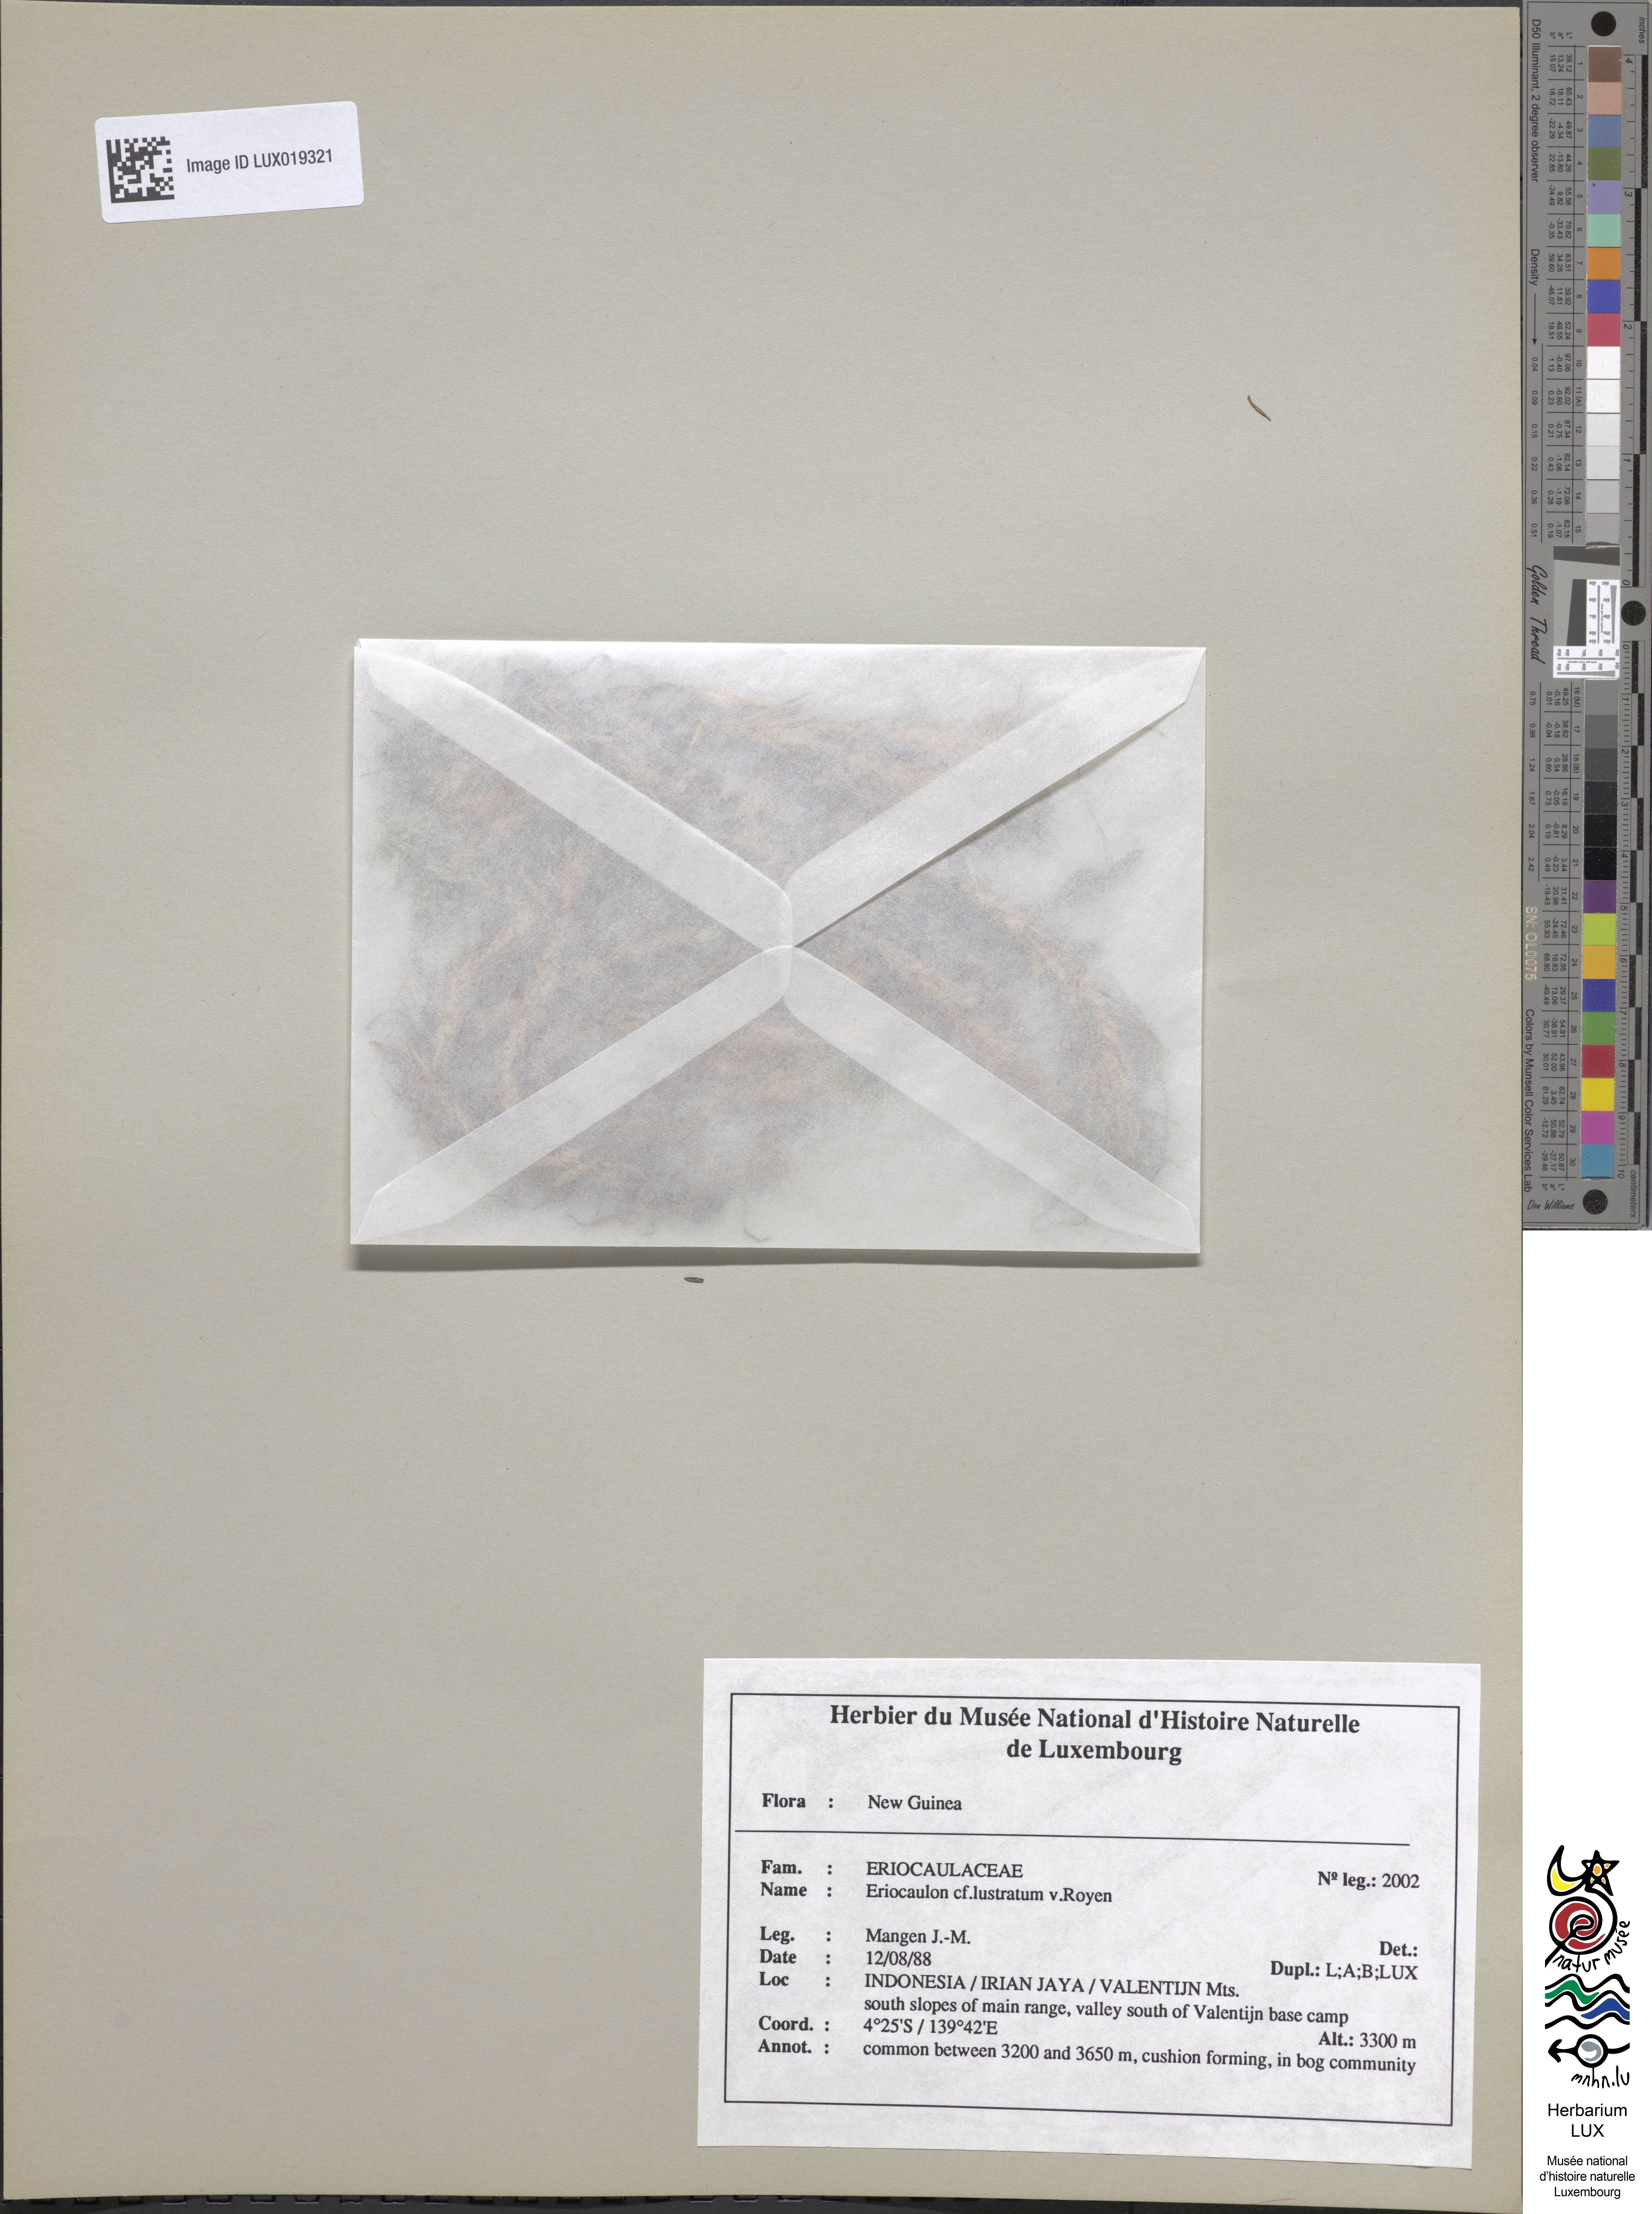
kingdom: Plantae
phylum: Tracheophyta
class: Liliopsida
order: Poales
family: Eriocaulaceae
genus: Eriocaulon
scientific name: Eriocaulon lustratum
